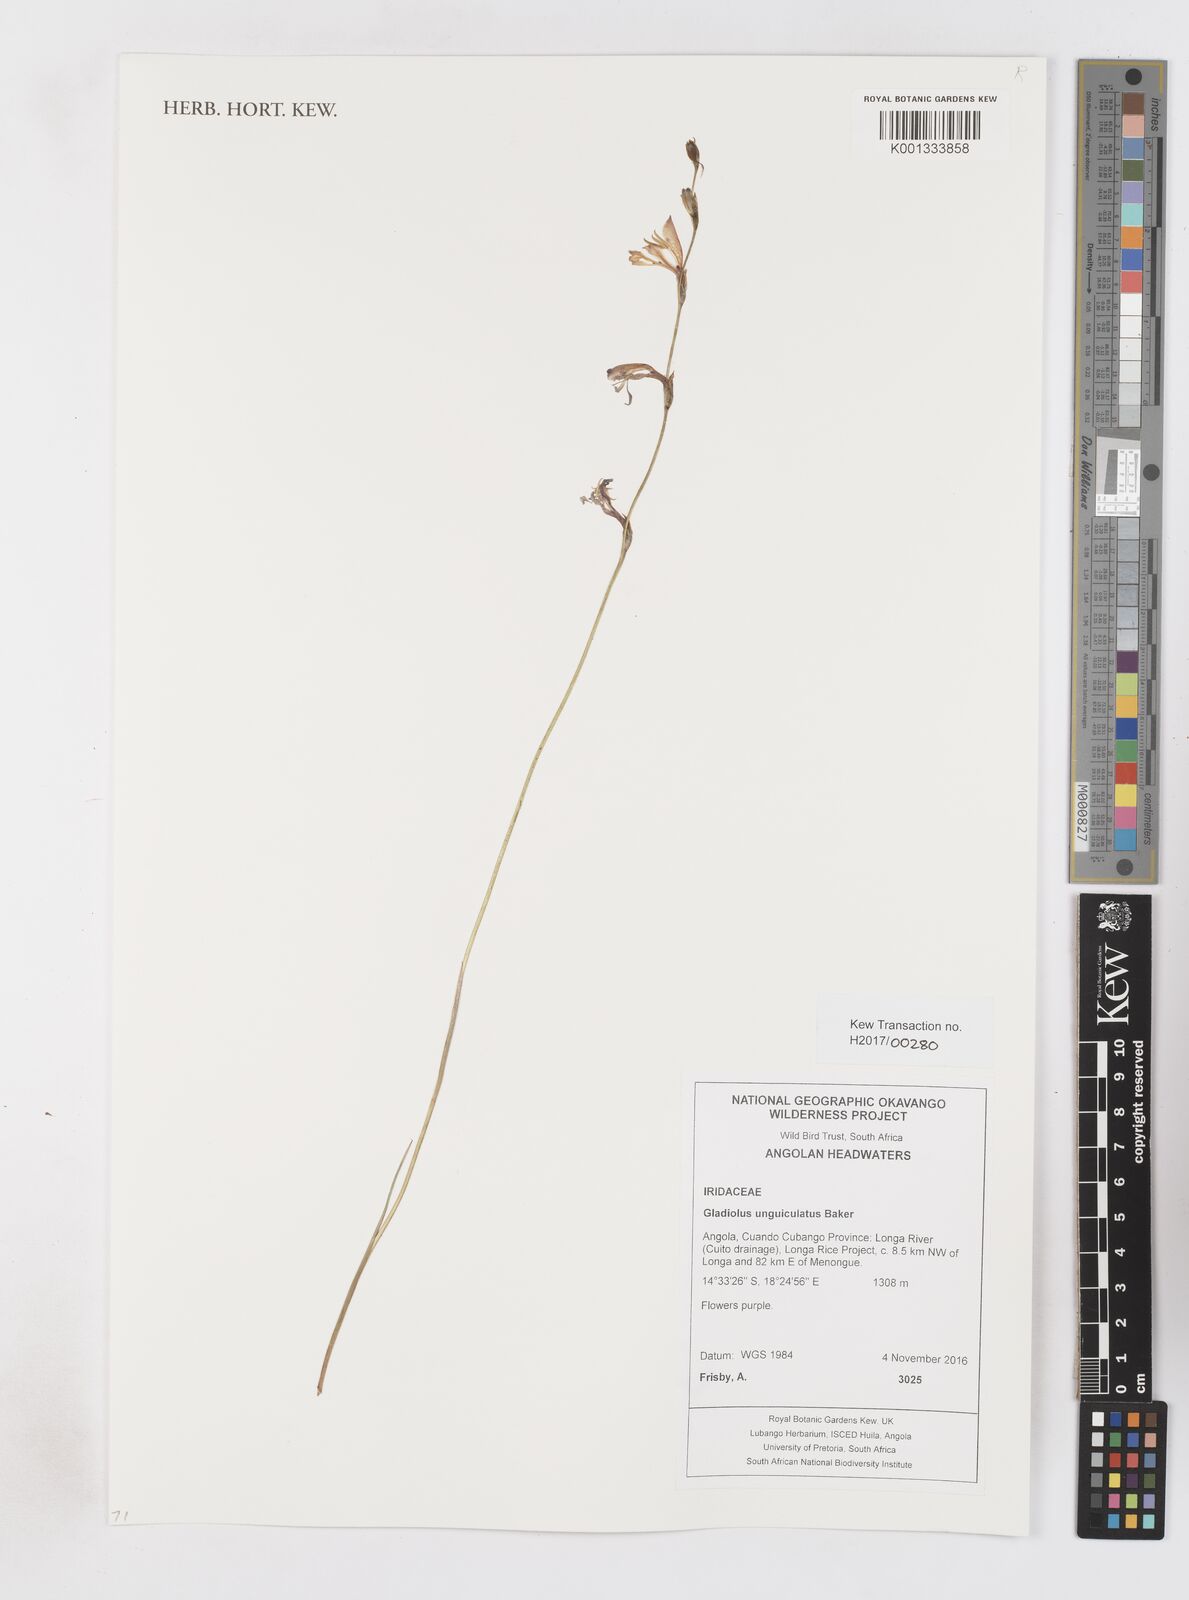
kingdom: Plantae
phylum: Tracheophyta
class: Liliopsida
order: Asparagales
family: Iridaceae
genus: Gladiolus
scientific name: Gladiolus unguiculatus
